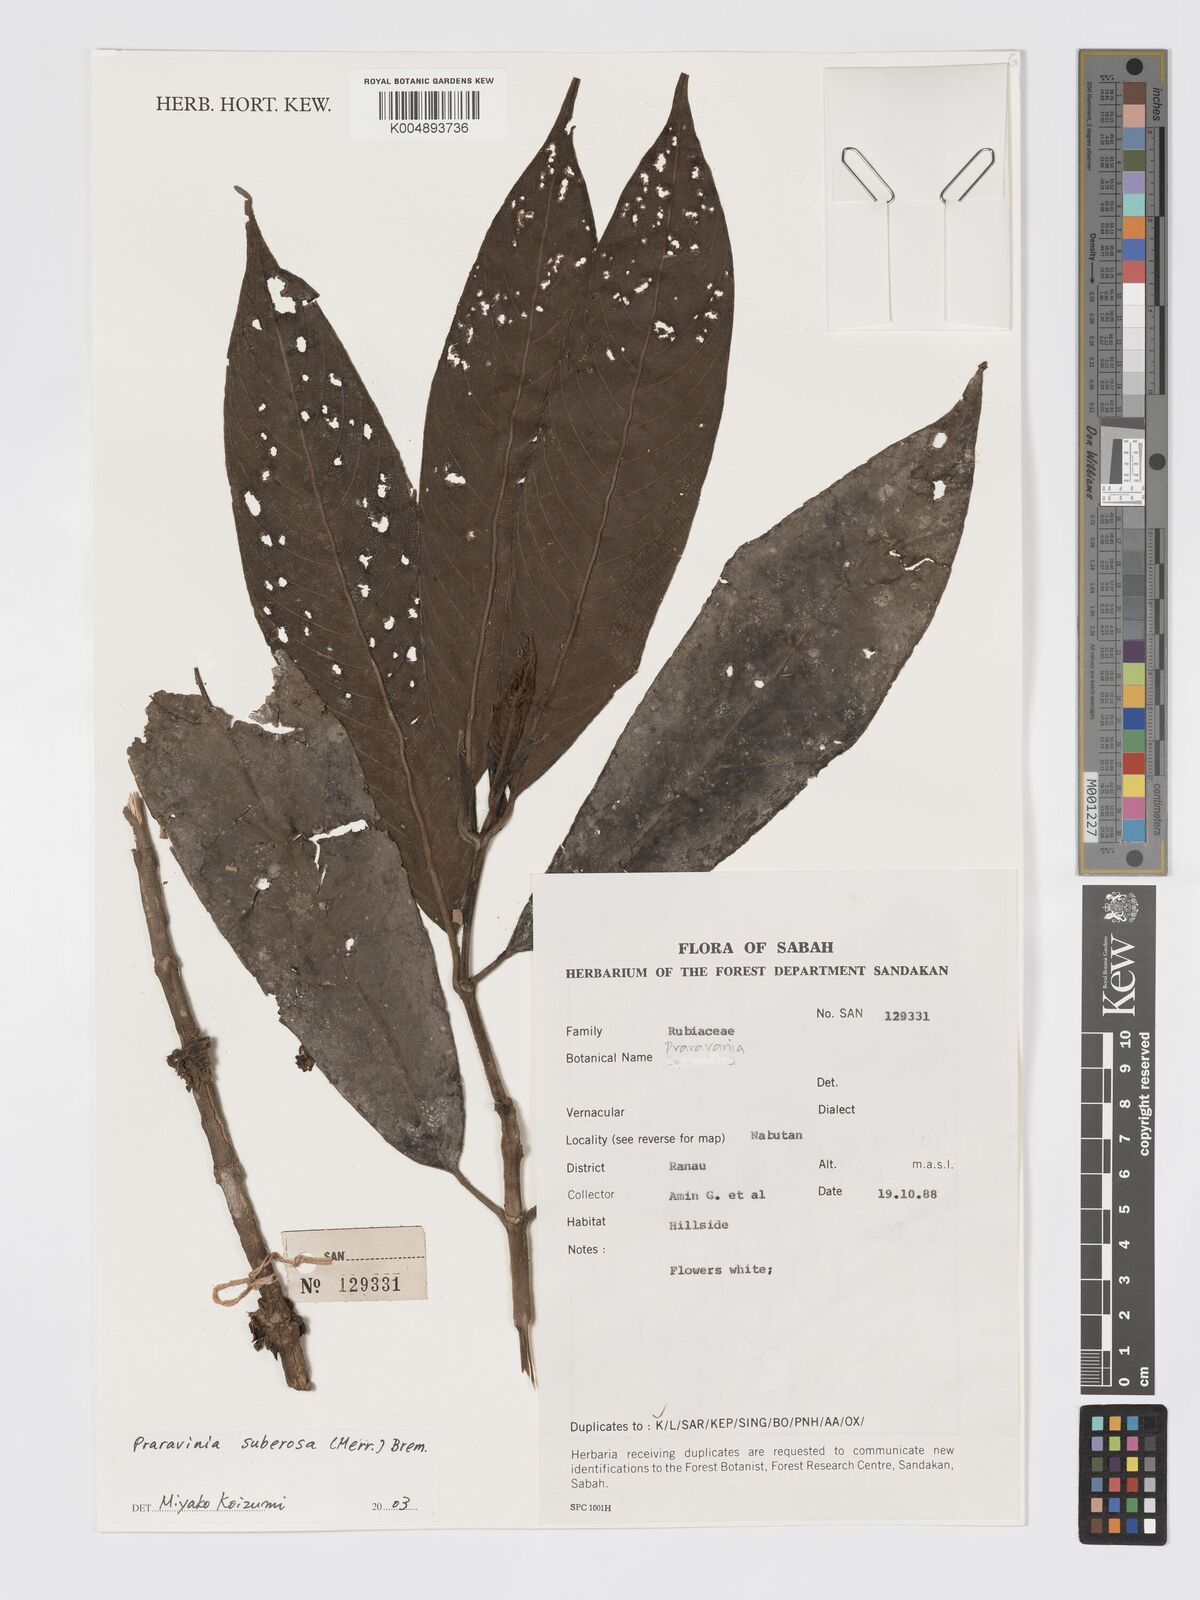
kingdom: Plantae
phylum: Tracheophyta
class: Magnoliopsida
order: Gentianales
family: Rubiaceae
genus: Praravinia
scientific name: Praravinia suberosa
